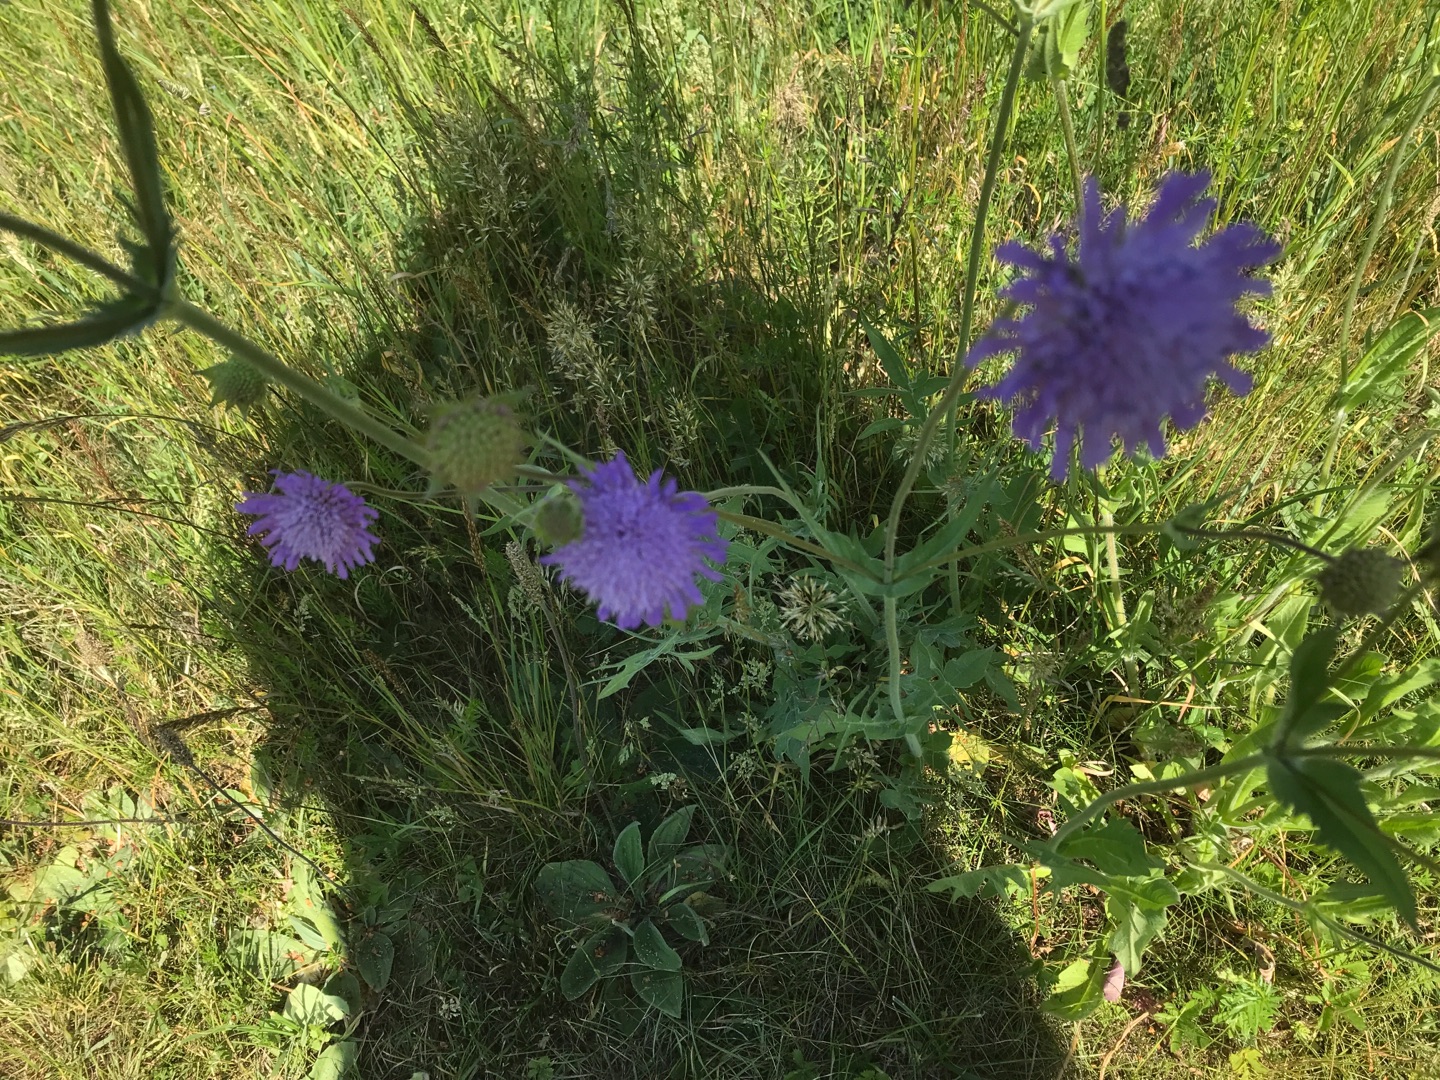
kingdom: Plantae
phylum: Tracheophyta
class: Magnoliopsida
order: Dipsacales
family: Caprifoliaceae
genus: Knautia
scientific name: Knautia arvensis
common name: Blåhat
